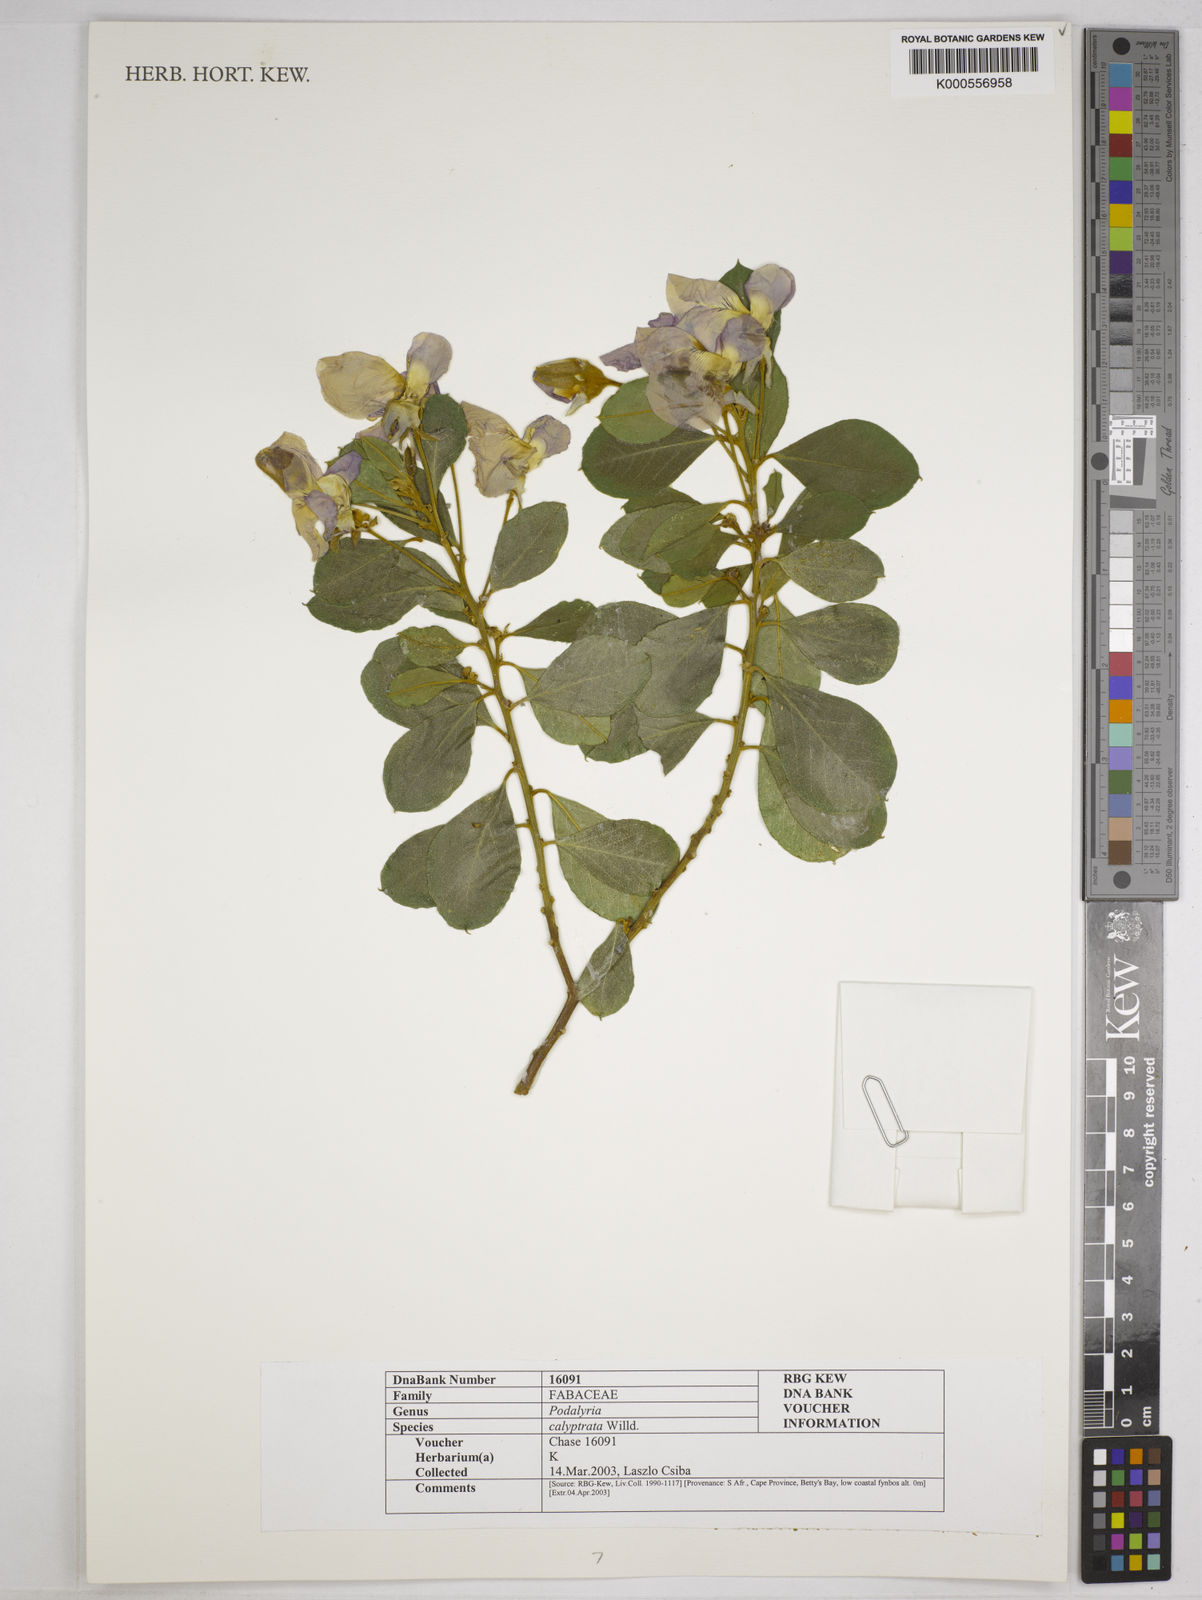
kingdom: Plantae
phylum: Tracheophyta
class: Magnoliopsida
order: Fabales
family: Fabaceae
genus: Podalyria
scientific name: Podalyria calyptrata
